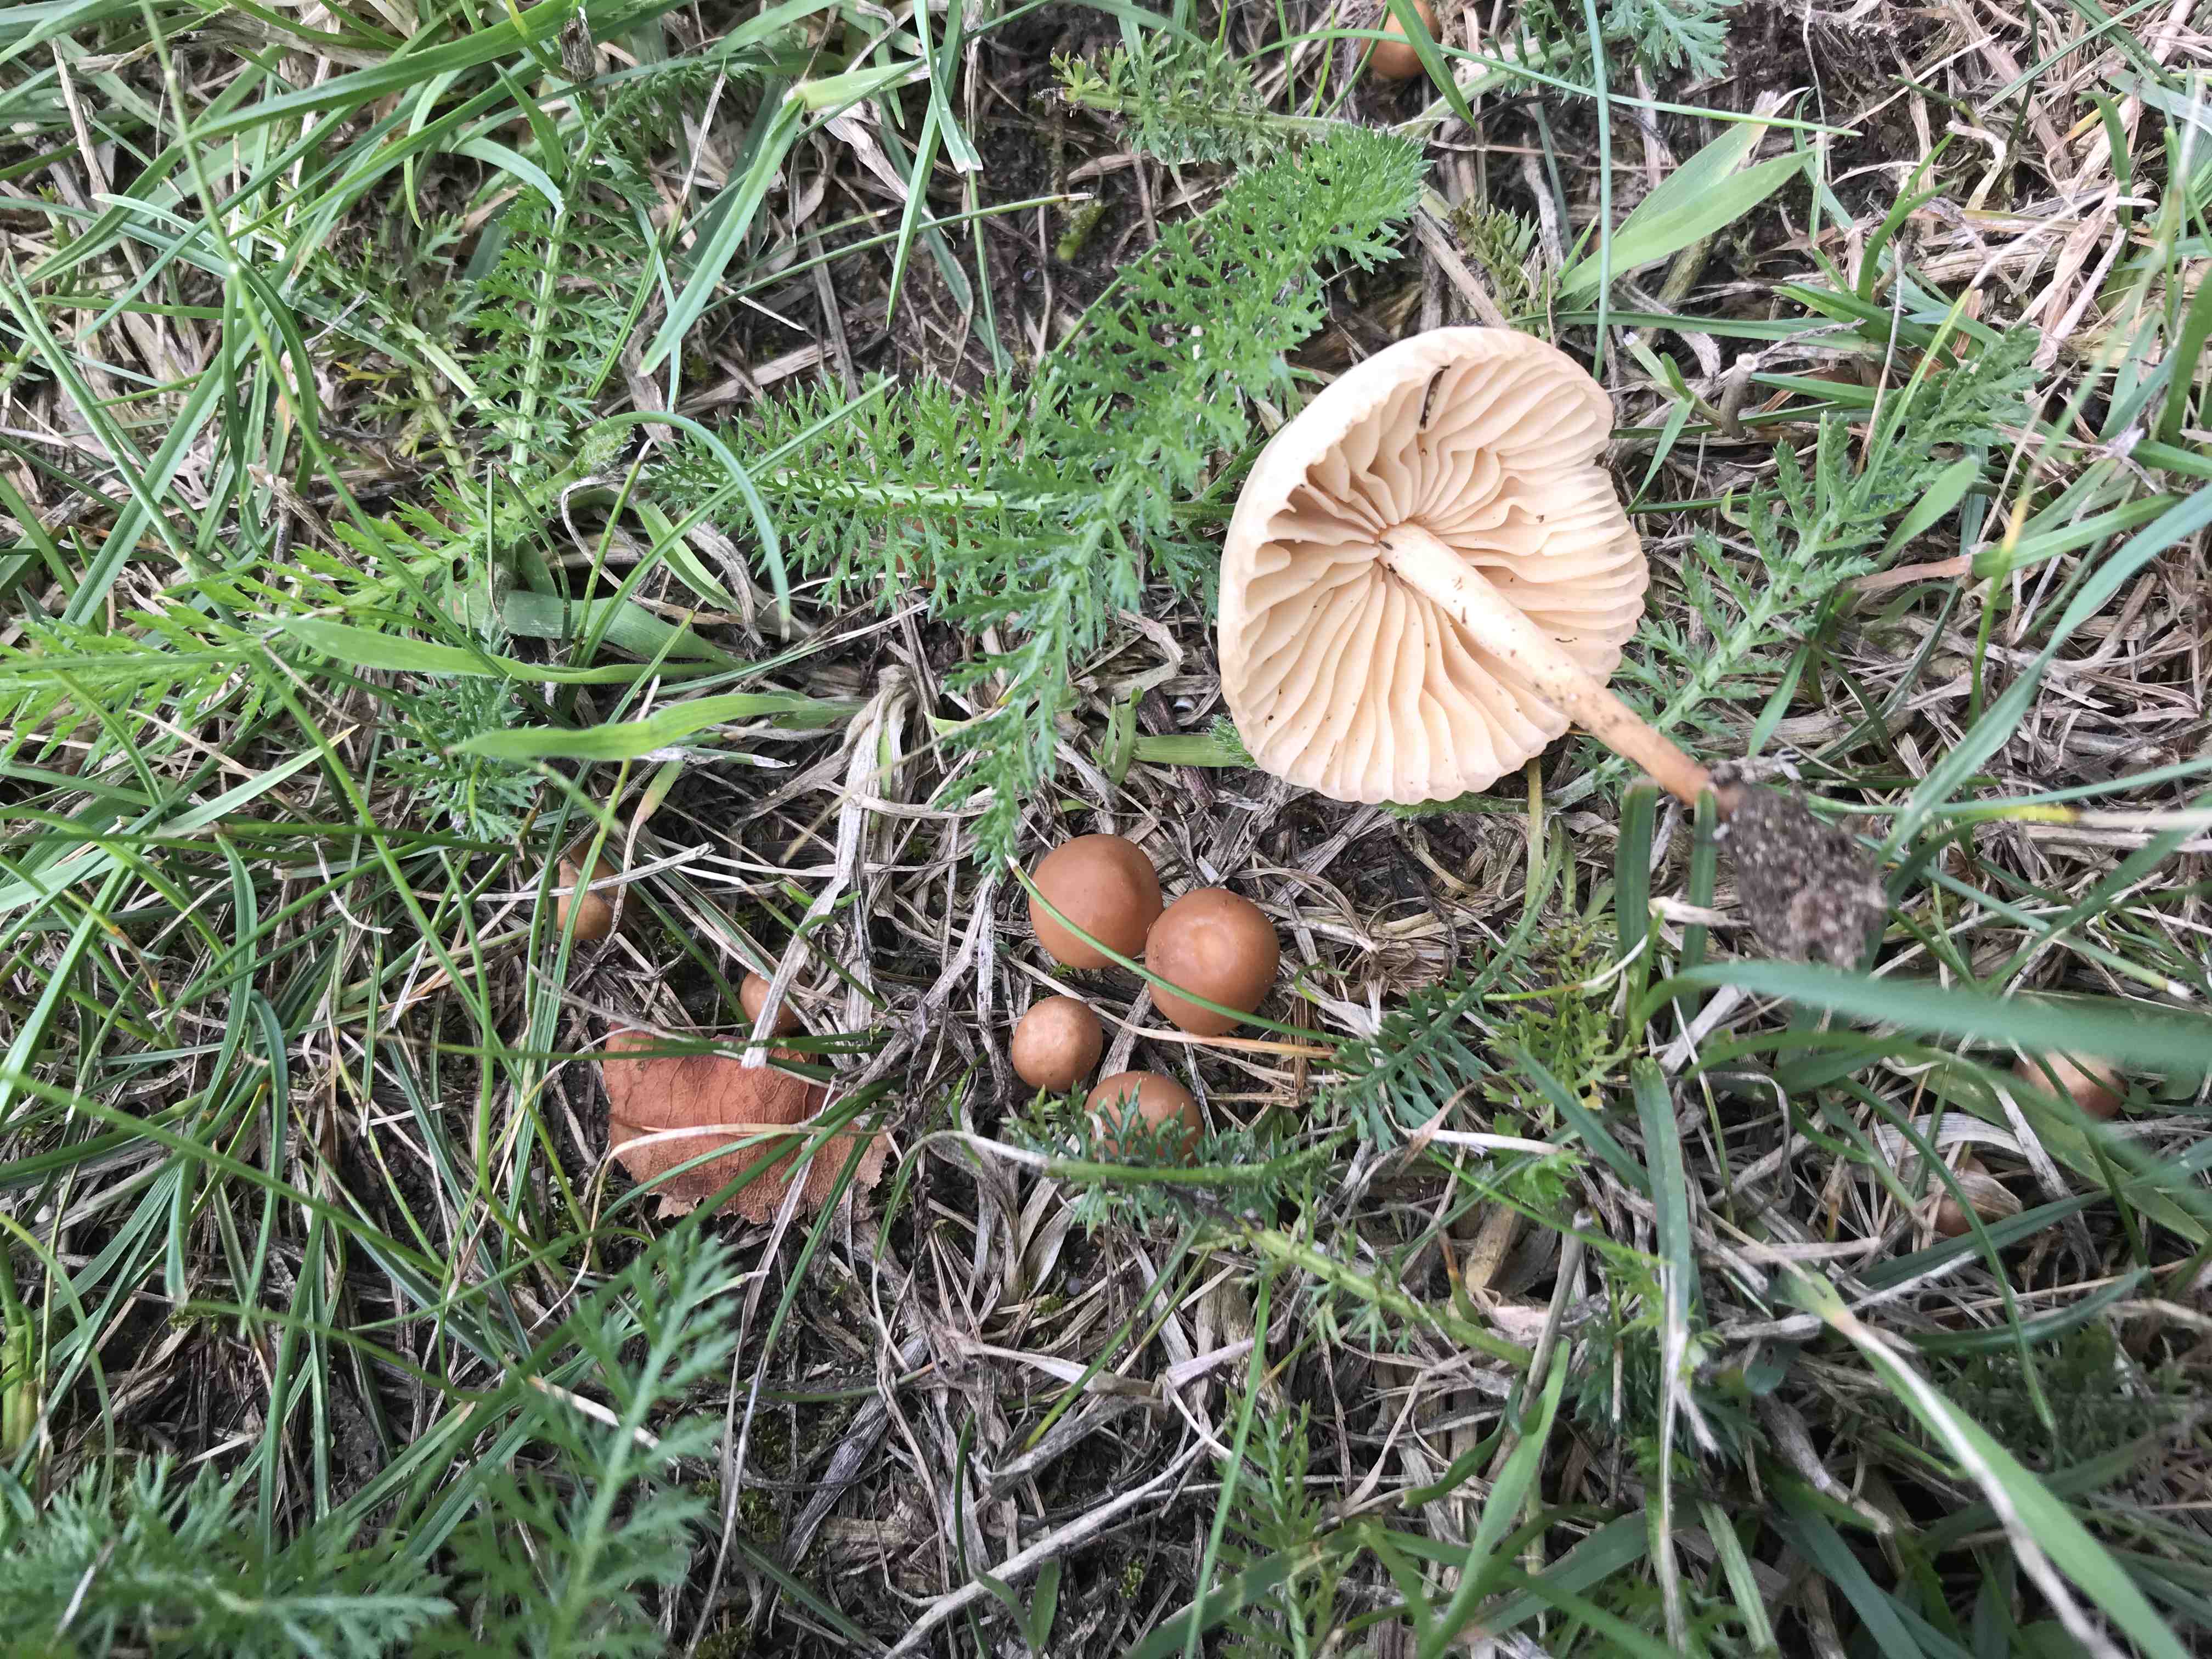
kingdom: Fungi
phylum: Basidiomycota
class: Agaricomycetes
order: Agaricales
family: Marasmiaceae
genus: Marasmius
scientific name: Marasmius oreades
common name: elledans-bruskhat
